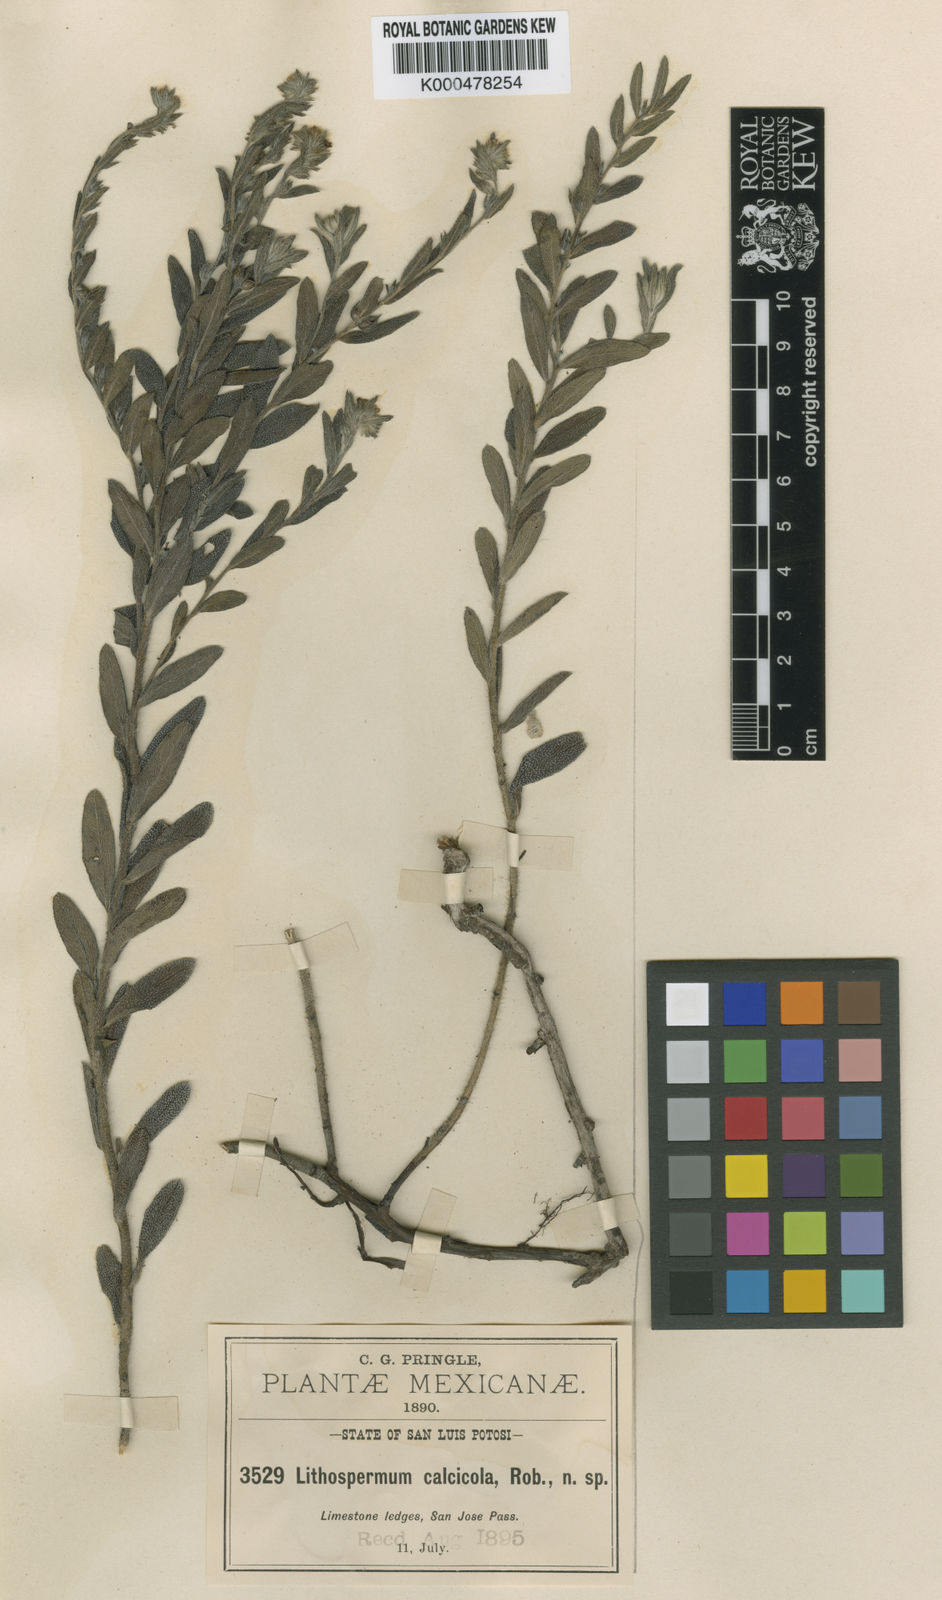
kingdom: Plantae
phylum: Tracheophyta
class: Magnoliopsida
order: Boraginales
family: Boraginaceae
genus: Lithospermum
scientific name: Lithospermum calcicola
